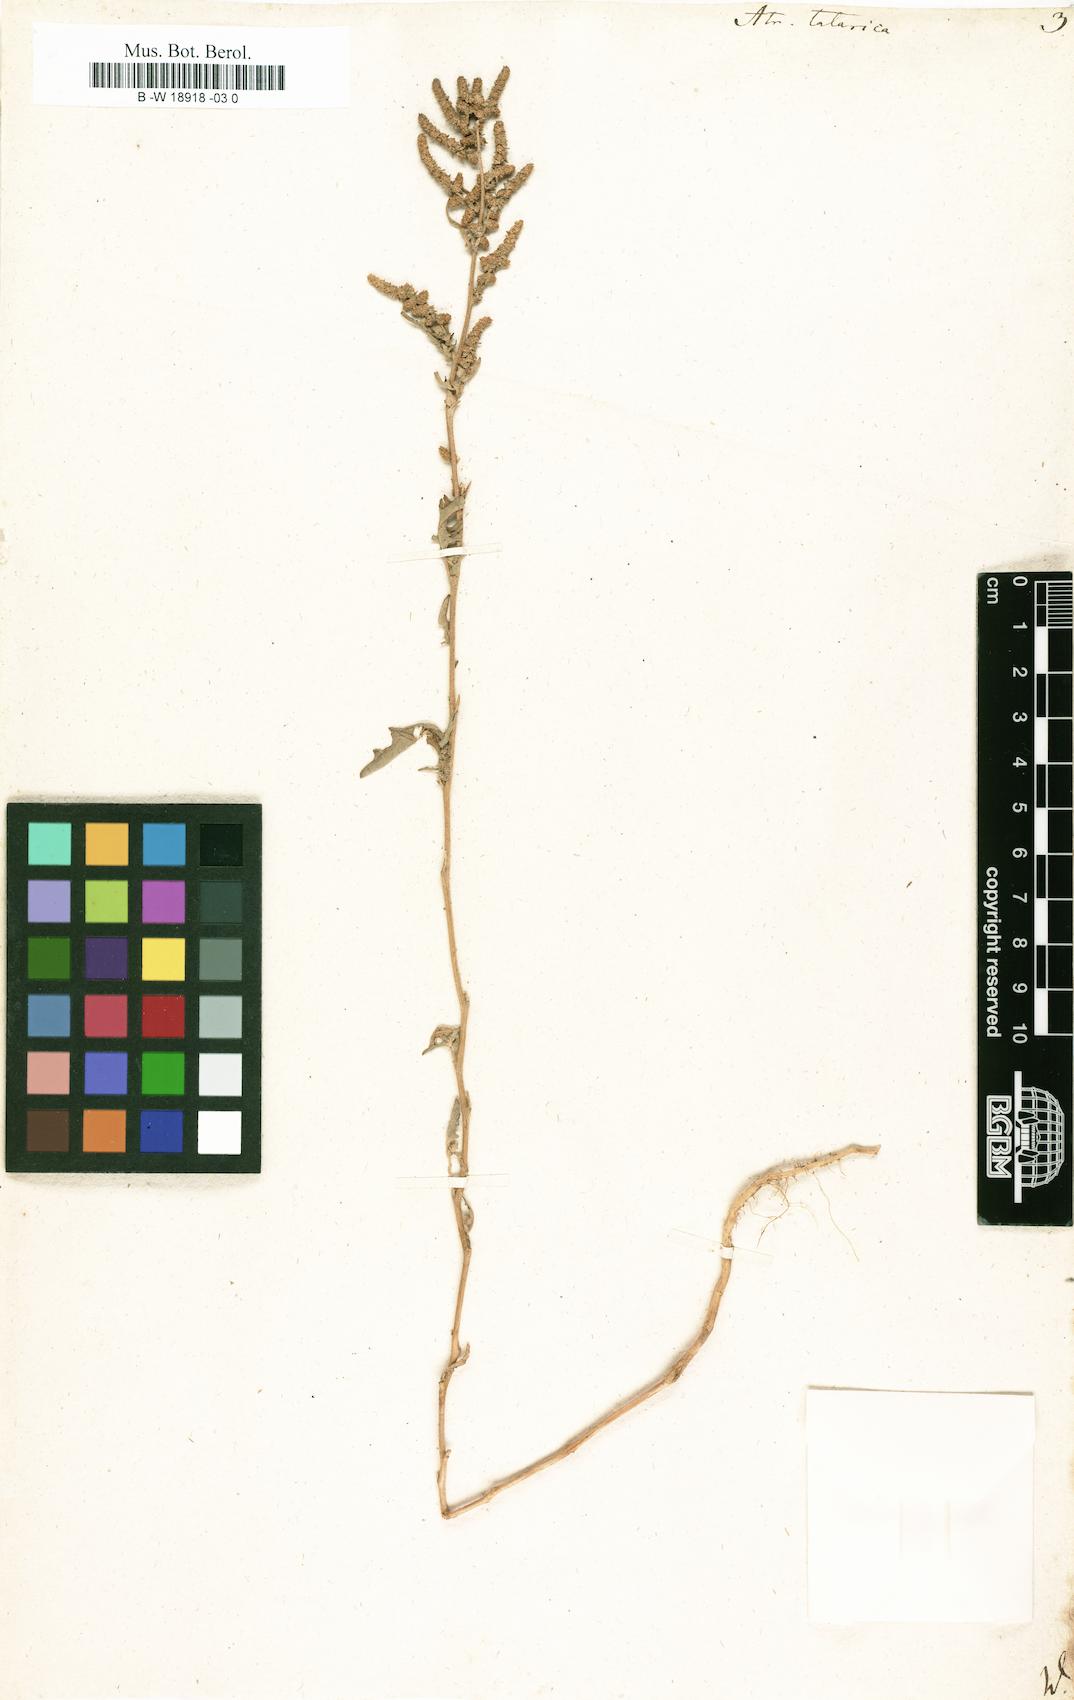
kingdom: Plantae
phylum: Tracheophyta
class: Magnoliopsida
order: Caryophyllales
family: Amaranthaceae
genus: Atriplex
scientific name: Atriplex tatarica
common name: Tatarian orache
